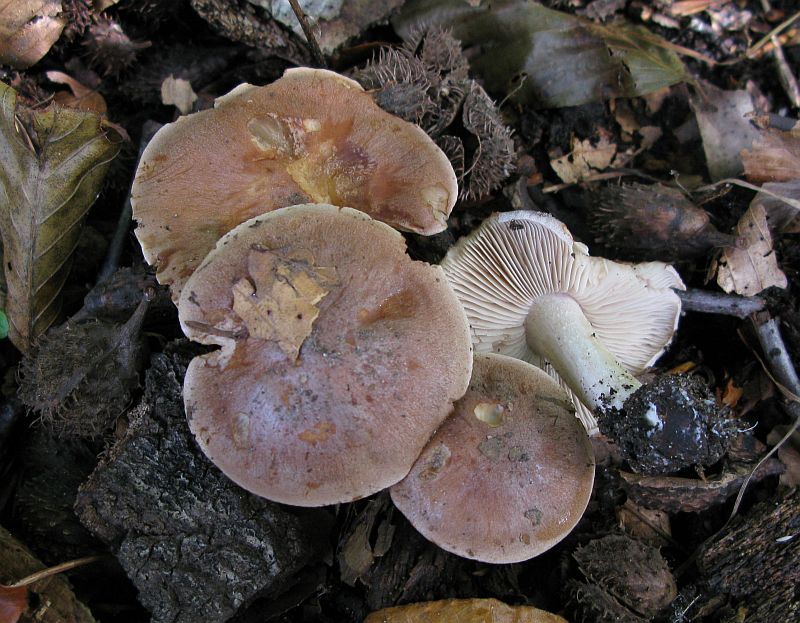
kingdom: Fungi
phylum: Basidiomycota
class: Agaricomycetes
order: Agaricales
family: Hymenogastraceae
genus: Hebeloma
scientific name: Hebeloma theobrominum
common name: rødbrun tåreblad
